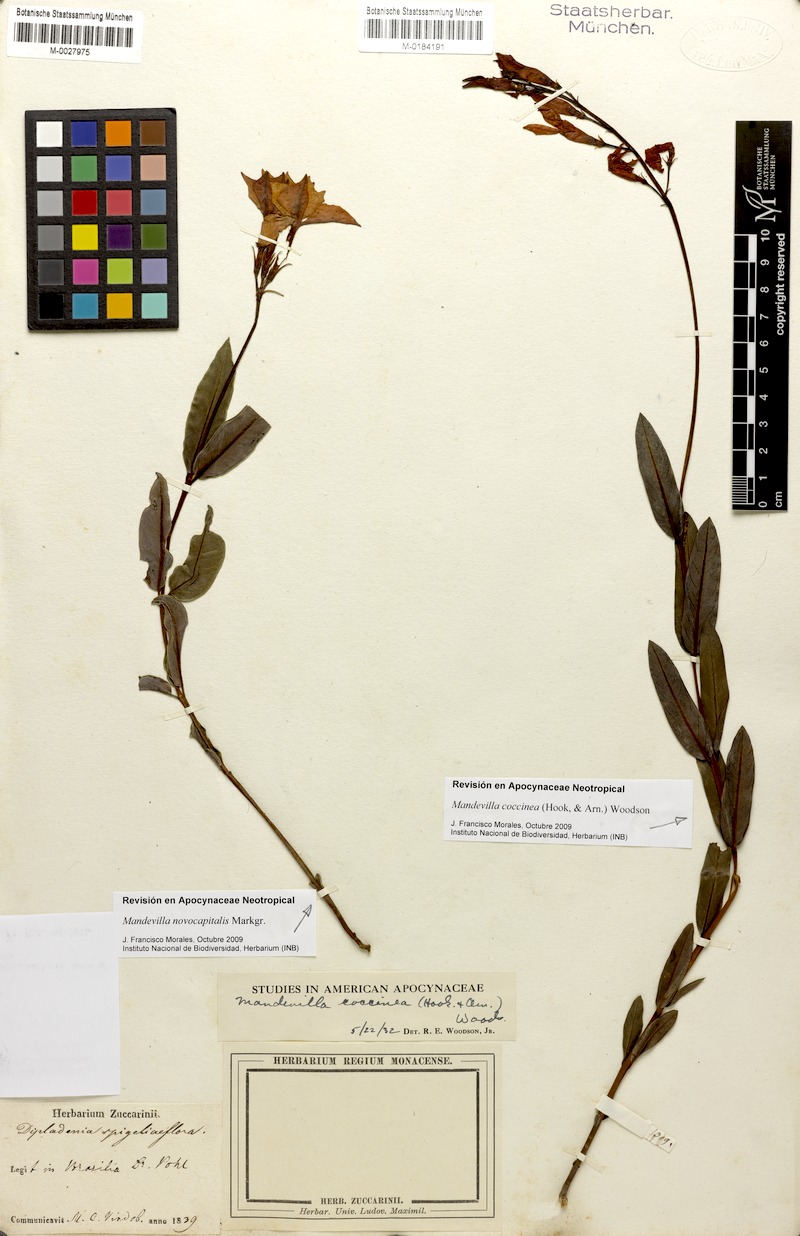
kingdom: Plantae
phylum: Tracheophyta
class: Magnoliopsida
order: Gentianales
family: Apocynaceae
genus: Mandevilla
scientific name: Mandevilla novocapitalis
